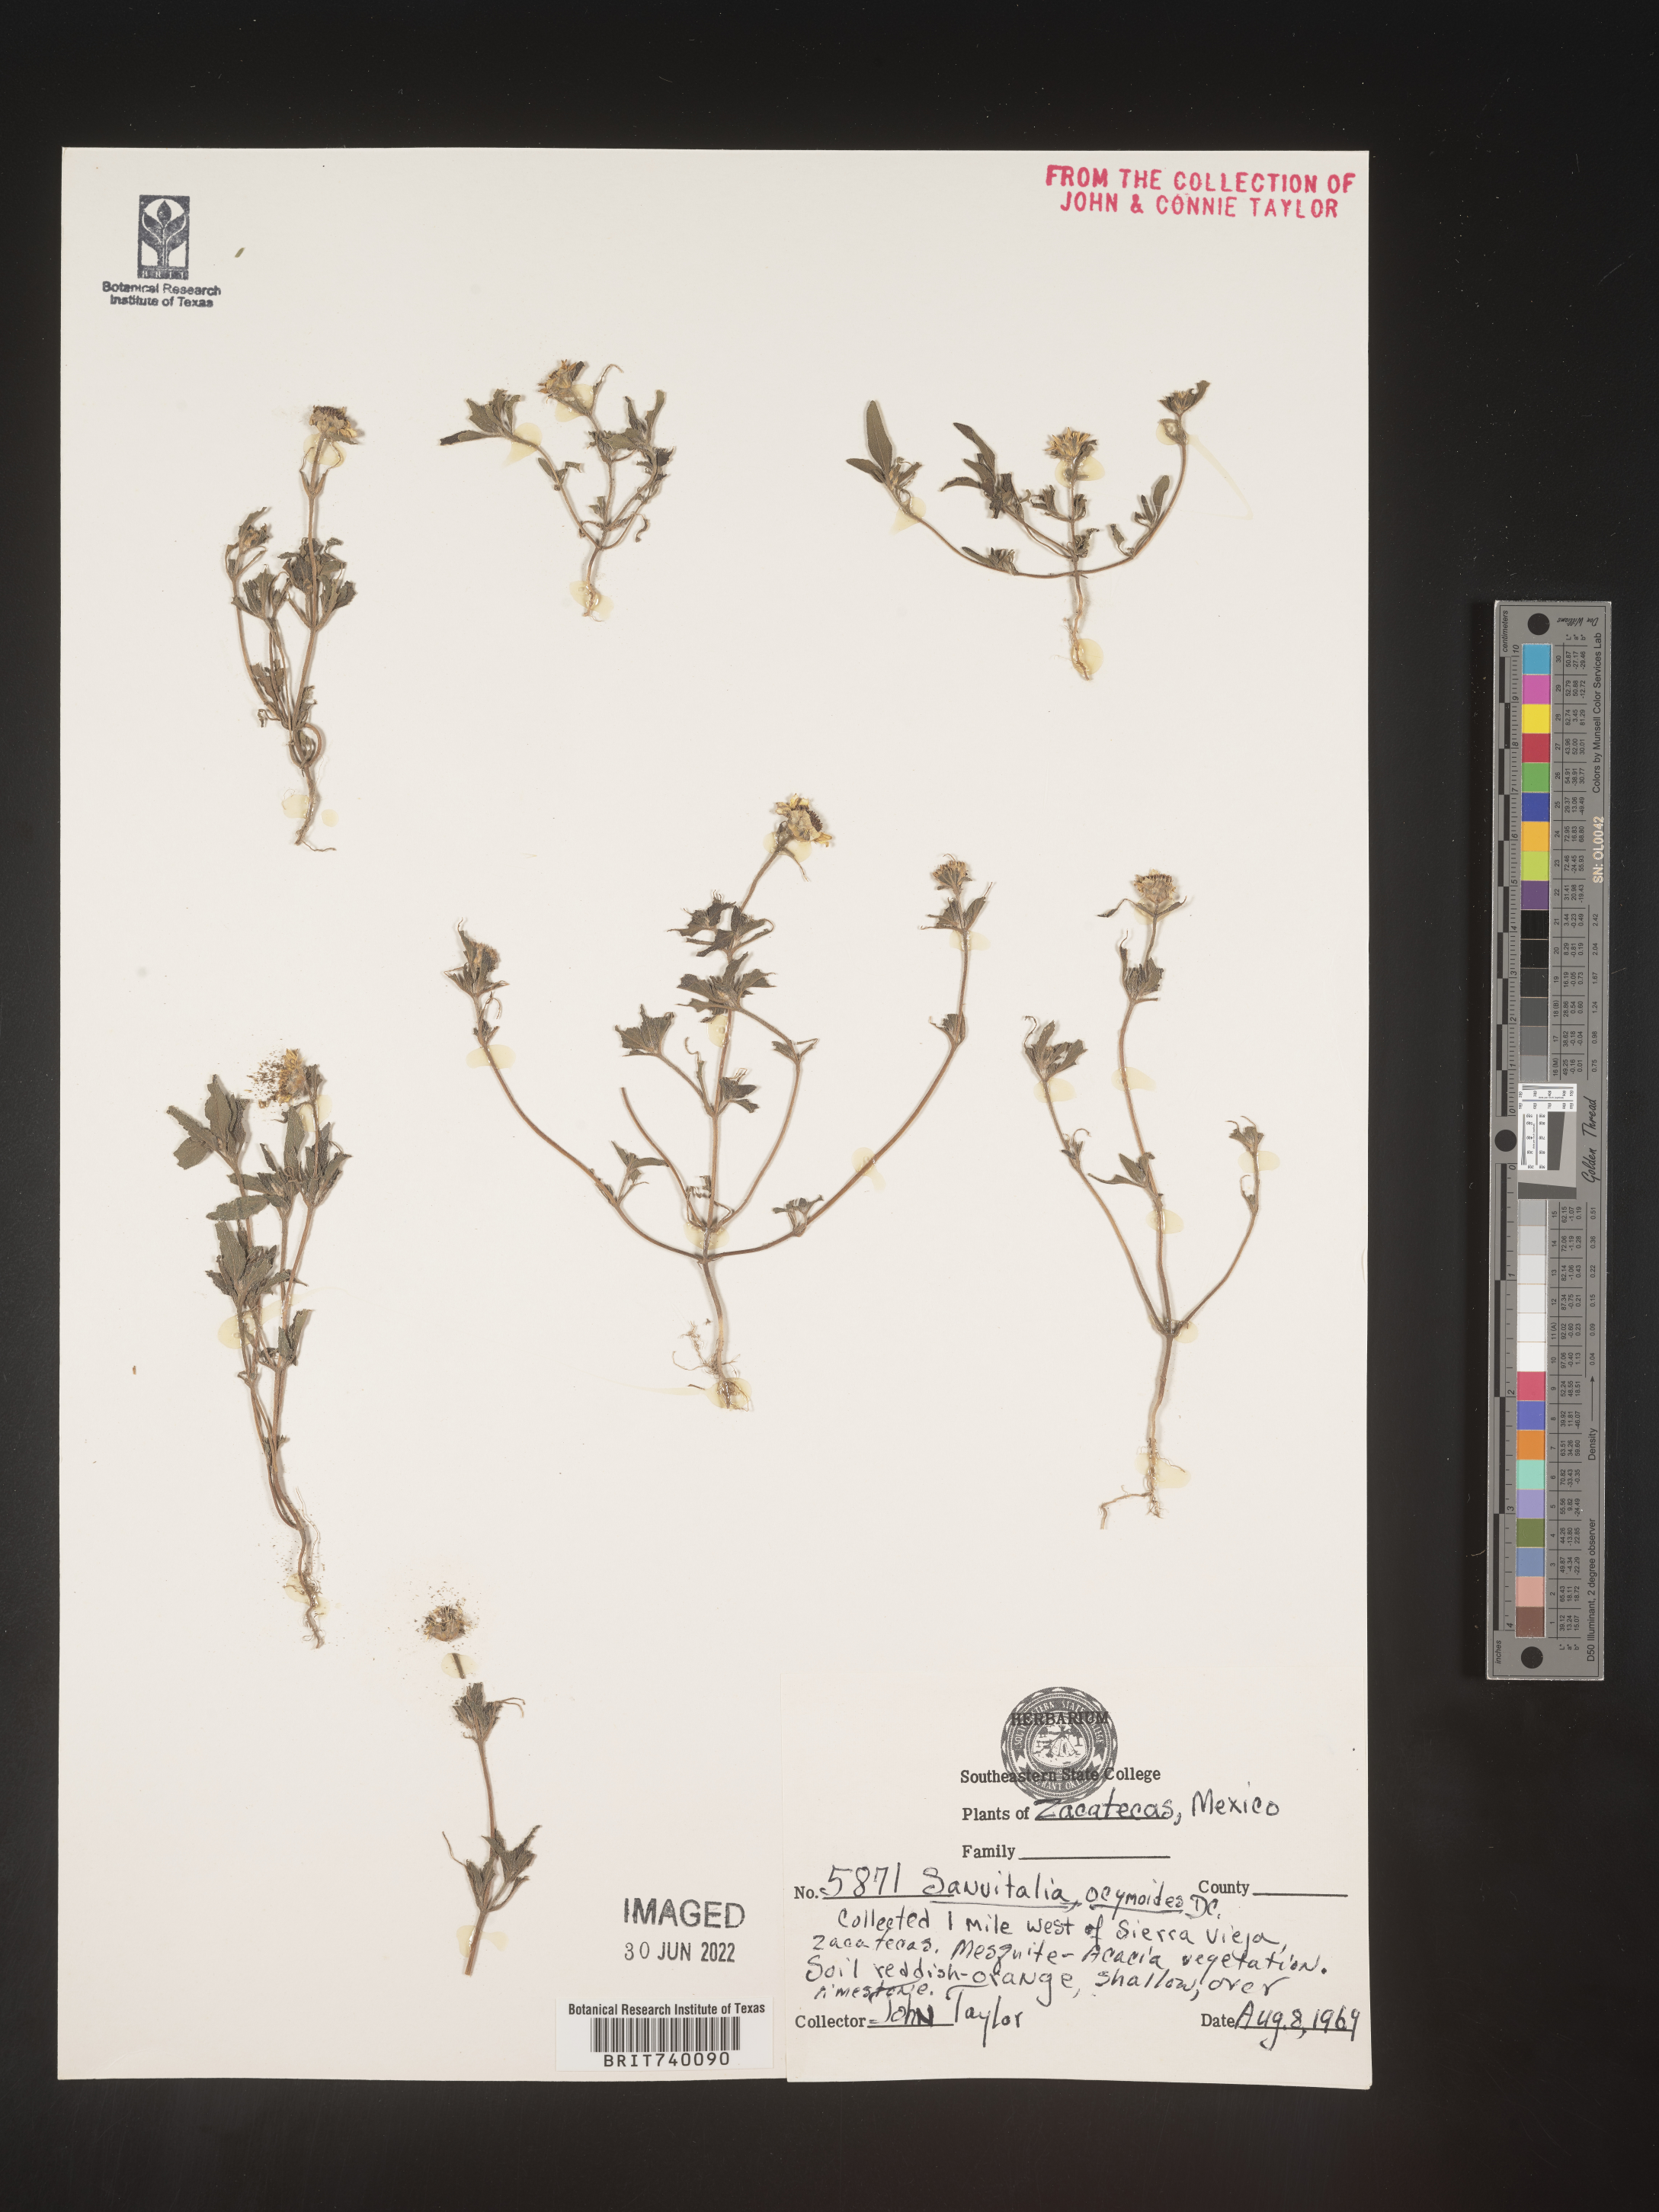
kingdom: Plantae
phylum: Tracheophyta
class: Magnoliopsida
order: Asterales
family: Asteraceae
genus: Sanvitalia
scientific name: Sanvitalia
